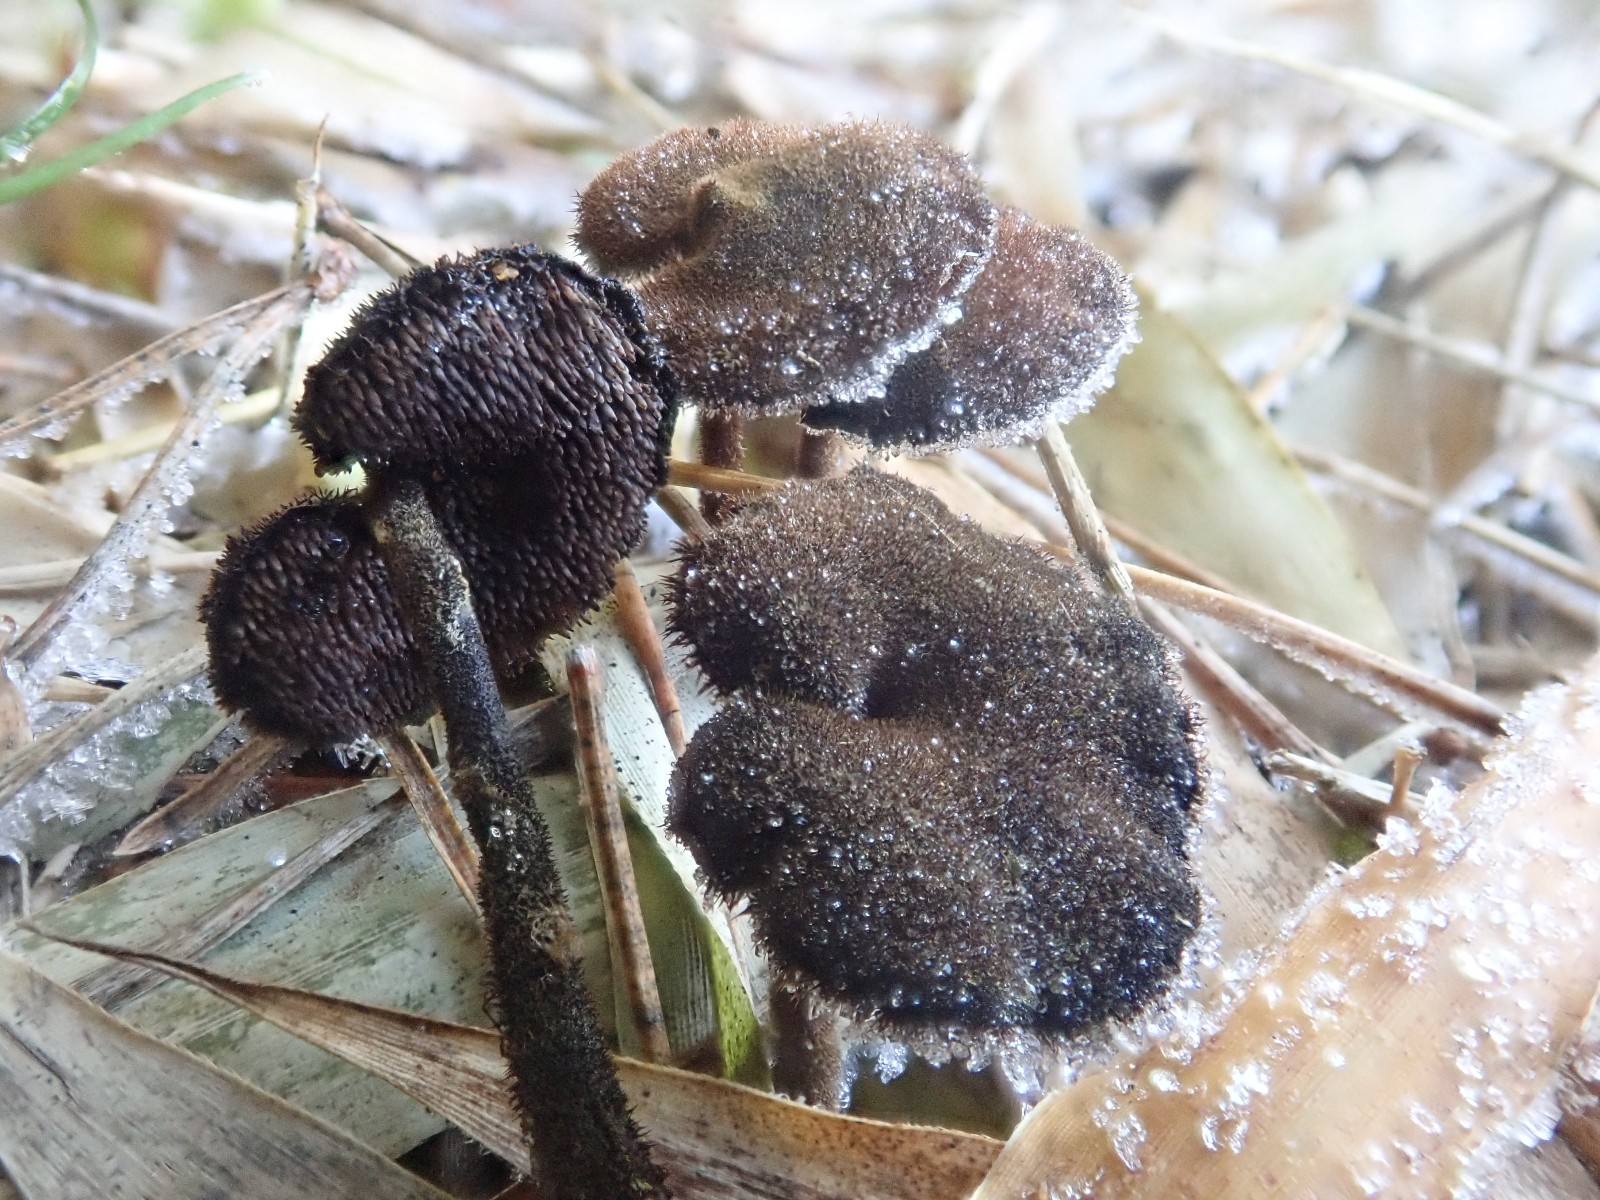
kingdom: Fungi
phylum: Basidiomycota
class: Agaricomycetes
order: Russulales
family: Auriscalpiaceae
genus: Auriscalpium
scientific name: Auriscalpium vulgare
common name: koglepigsvamp
